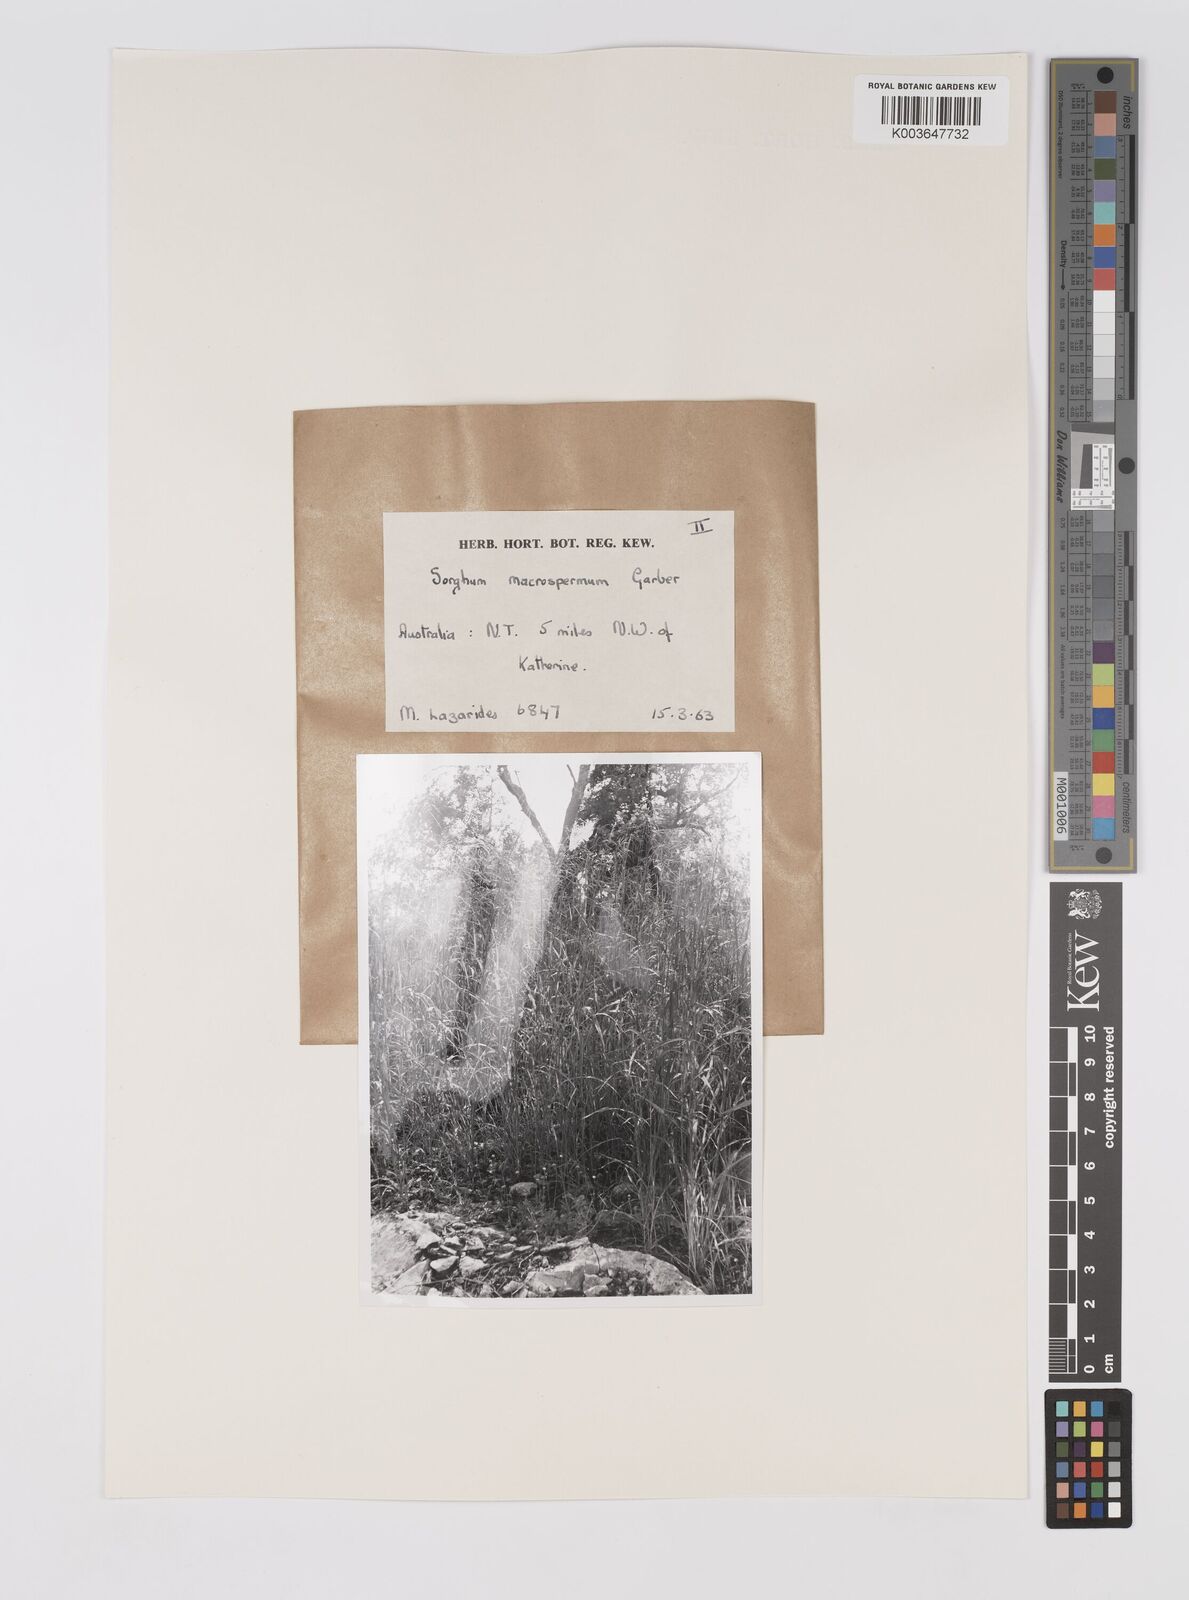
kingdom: Plantae
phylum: Tracheophyta
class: Liliopsida
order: Poales
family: Poaceae
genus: Sorghum
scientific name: Sorghum macrospermum
